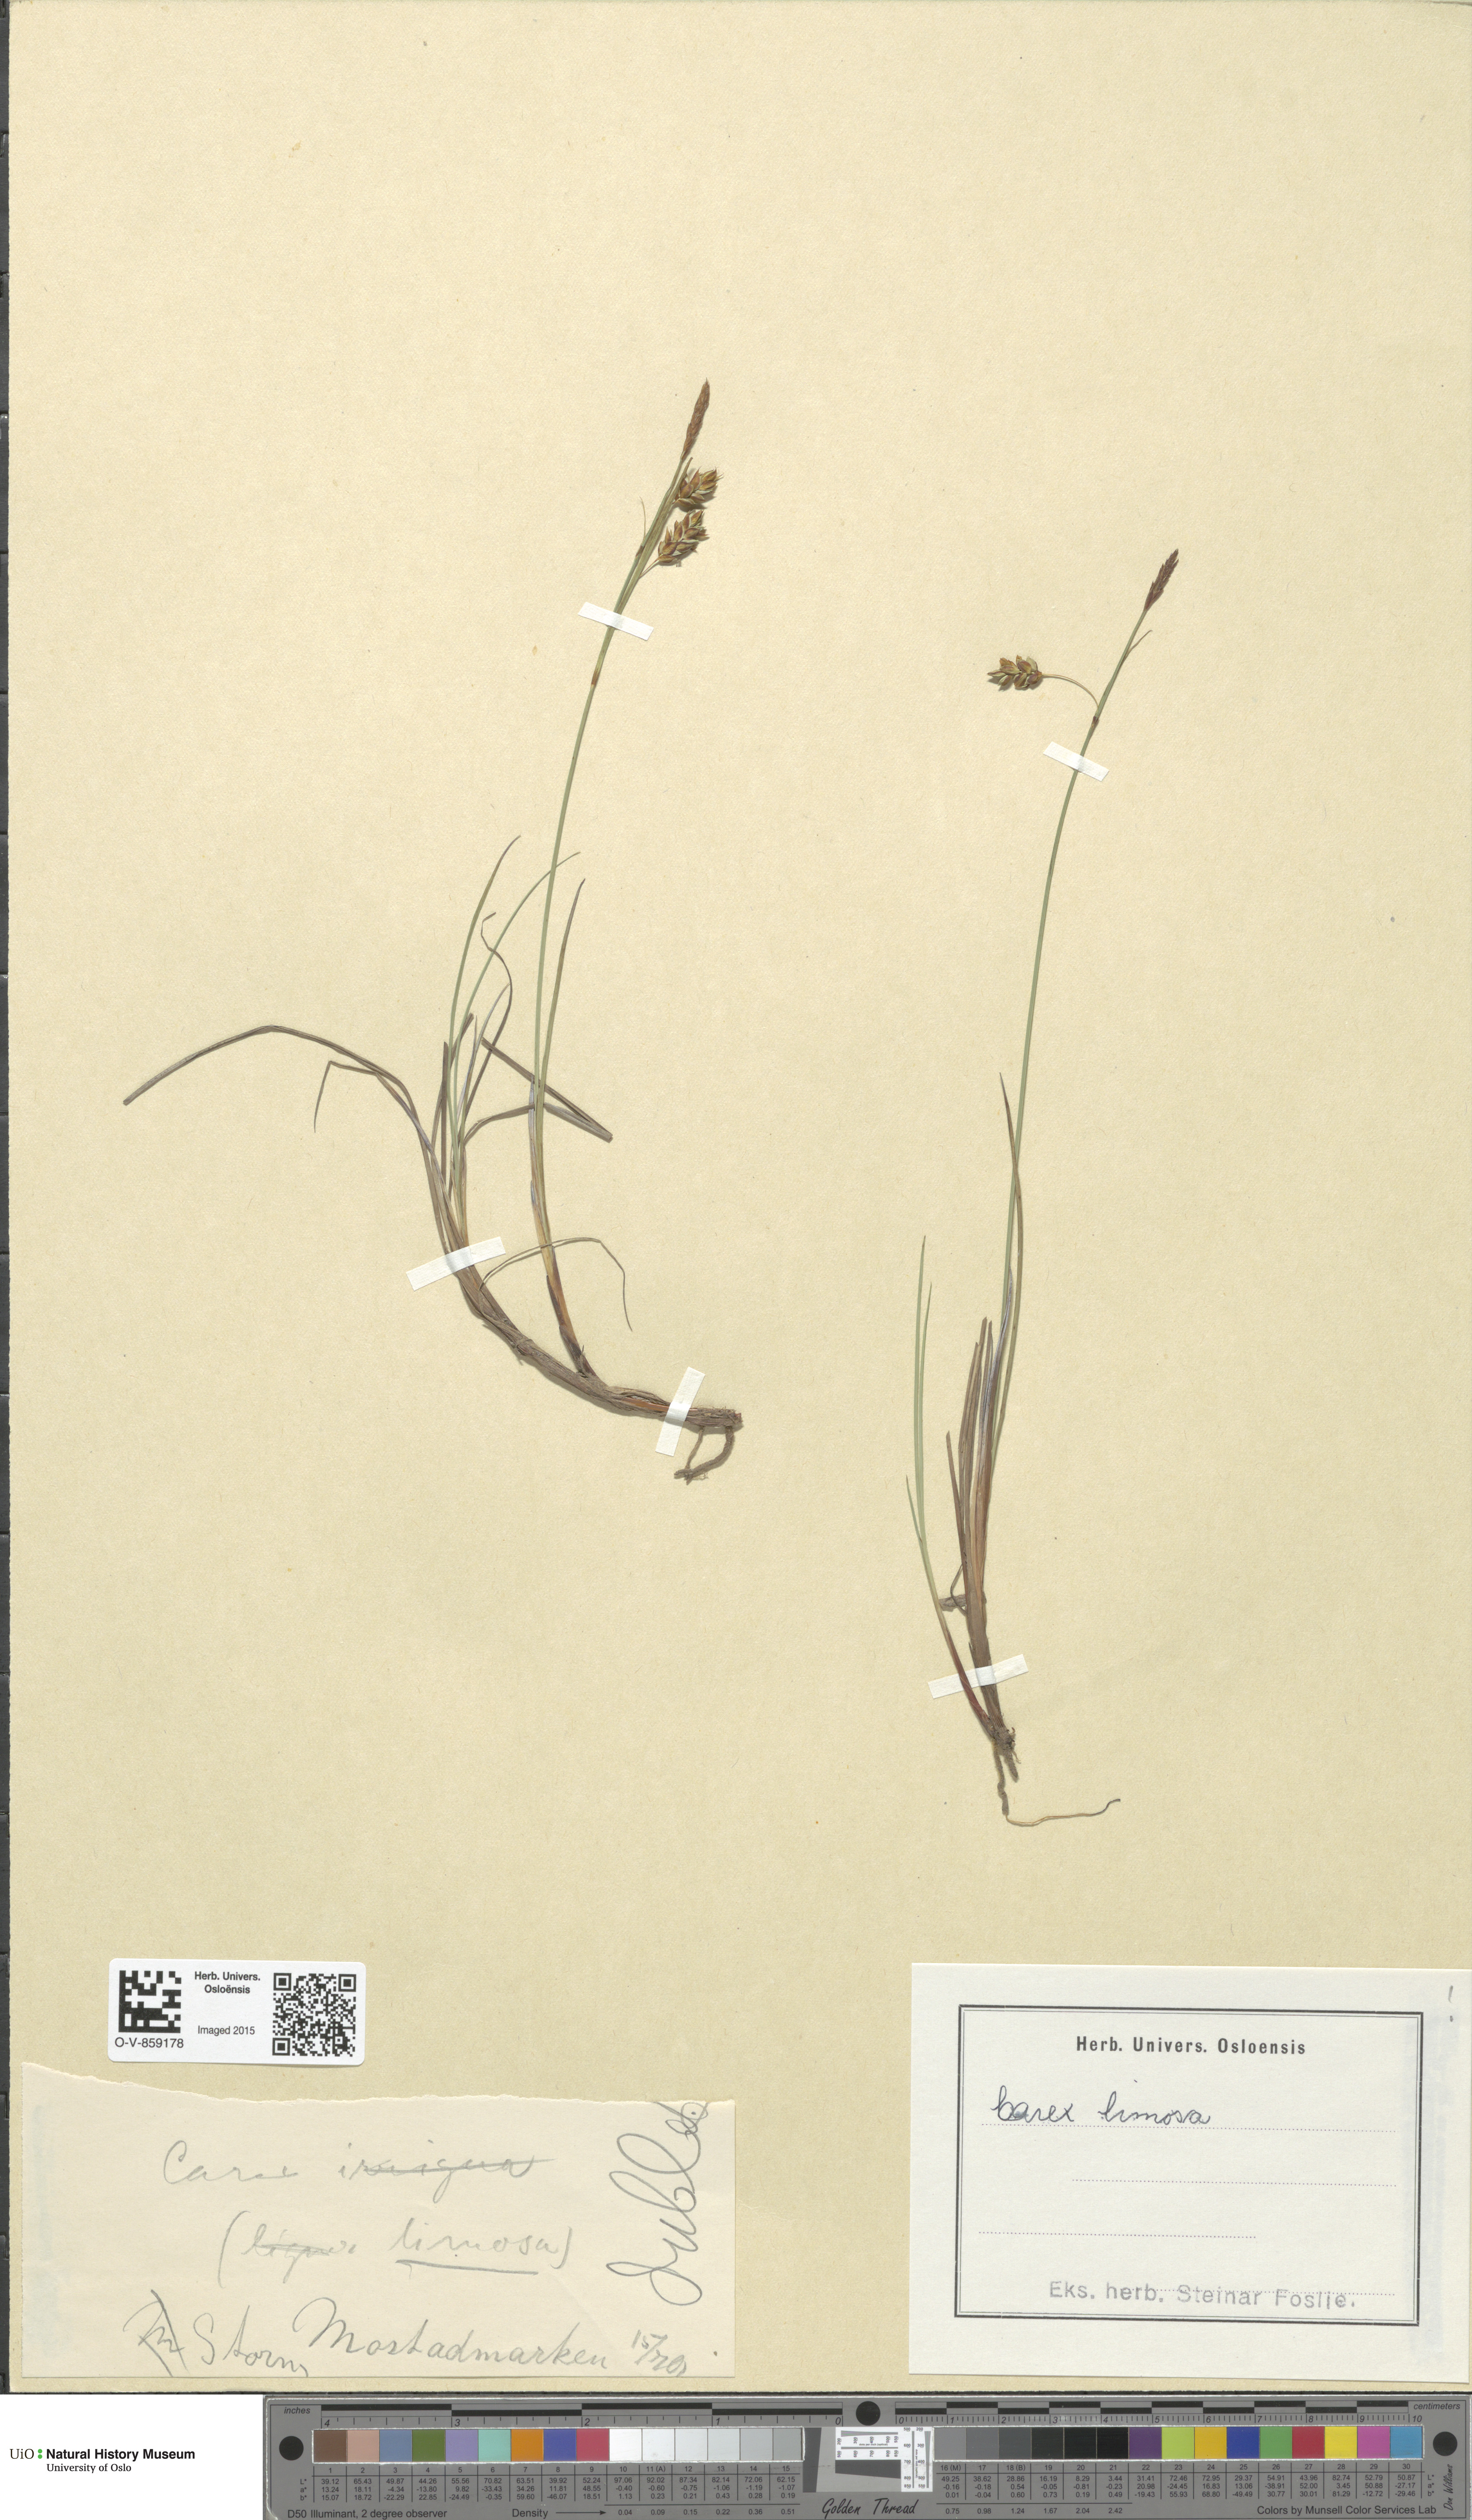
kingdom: Plantae
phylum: Tracheophyta
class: Liliopsida
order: Poales
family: Cyperaceae
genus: Carex
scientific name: Carex limosa
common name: Bog sedge
